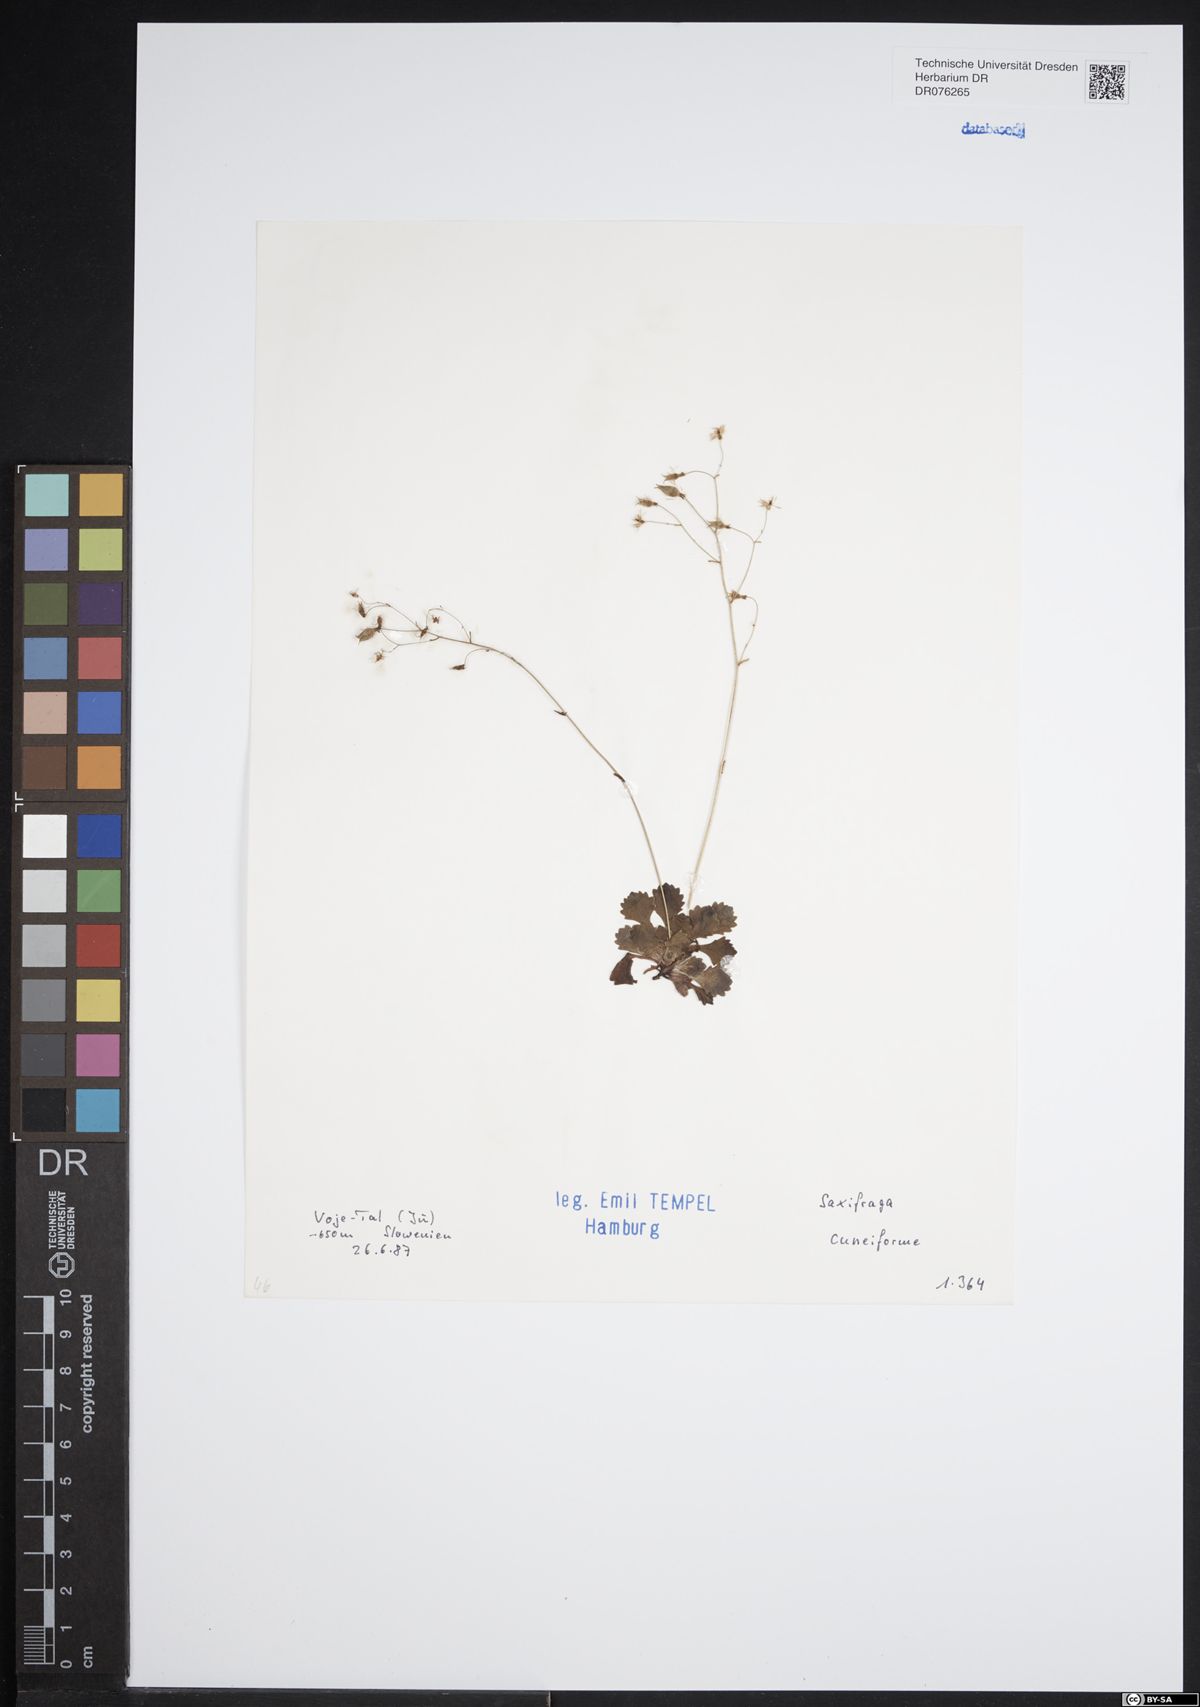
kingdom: Plantae
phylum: Tracheophyta
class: Magnoliopsida
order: Saxifragales
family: Saxifragaceae
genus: Saxifraga
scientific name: Saxifraga cuneifolia
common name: Lesser londonpride
